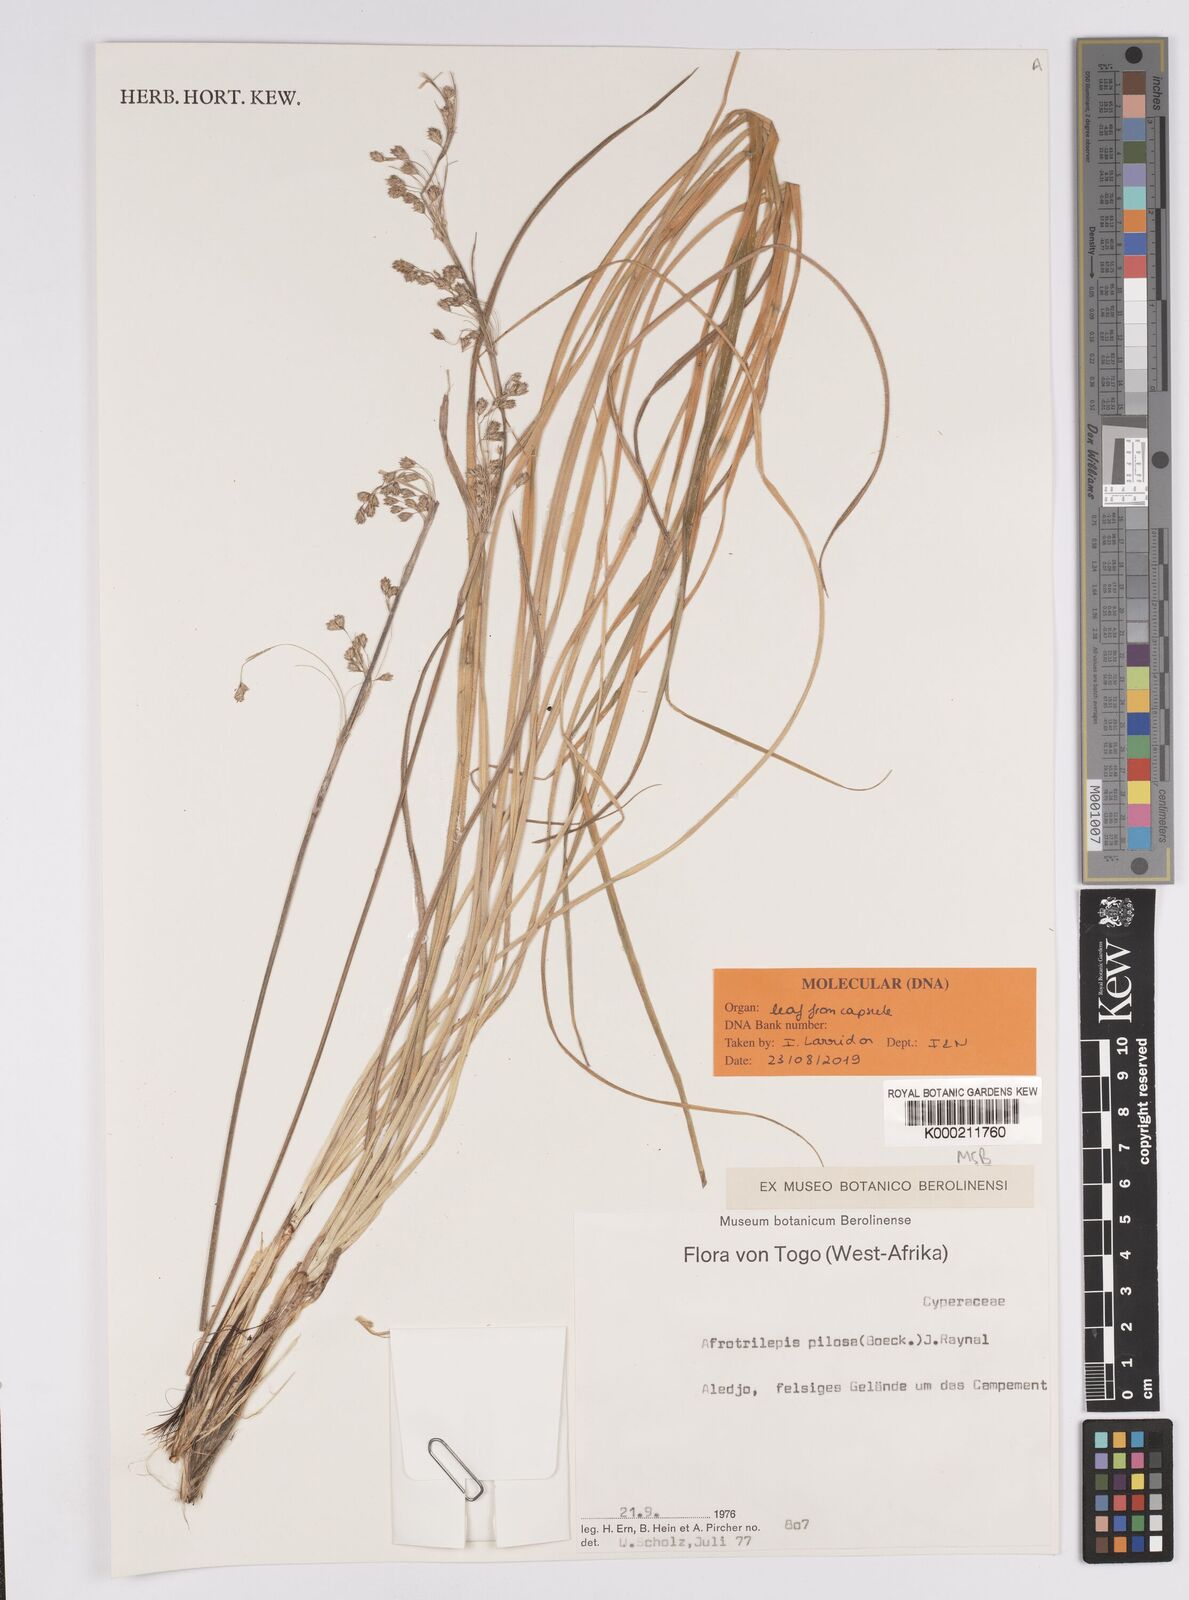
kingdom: Plantae
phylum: Tracheophyta
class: Liliopsida
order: Poales
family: Cyperaceae
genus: Afrotrilepis
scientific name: Afrotrilepis pilosa
